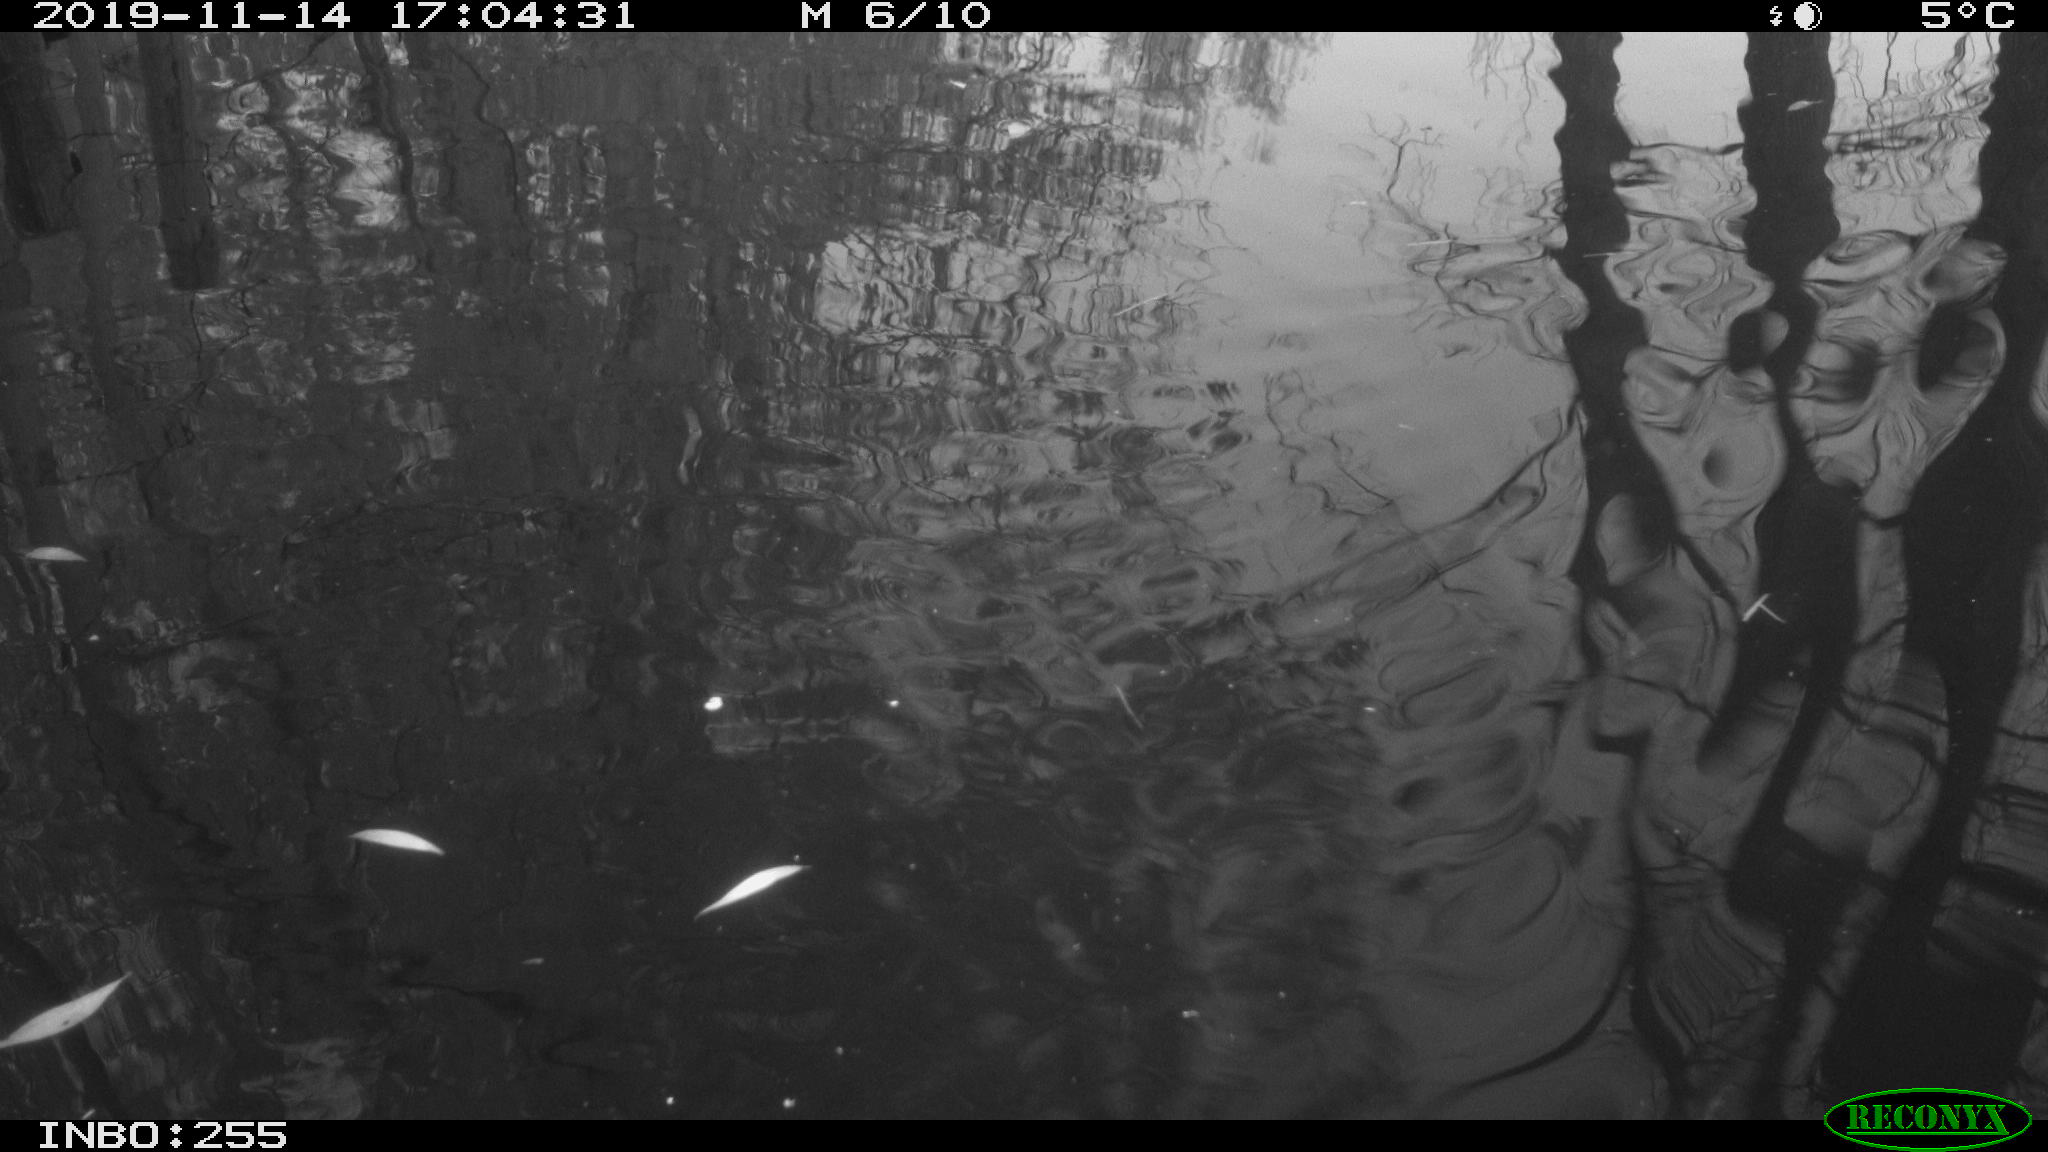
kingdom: Animalia
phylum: Chordata
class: Aves
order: Gruiformes
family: Rallidae
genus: Gallinula
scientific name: Gallinula chloropus
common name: Common moorhen
